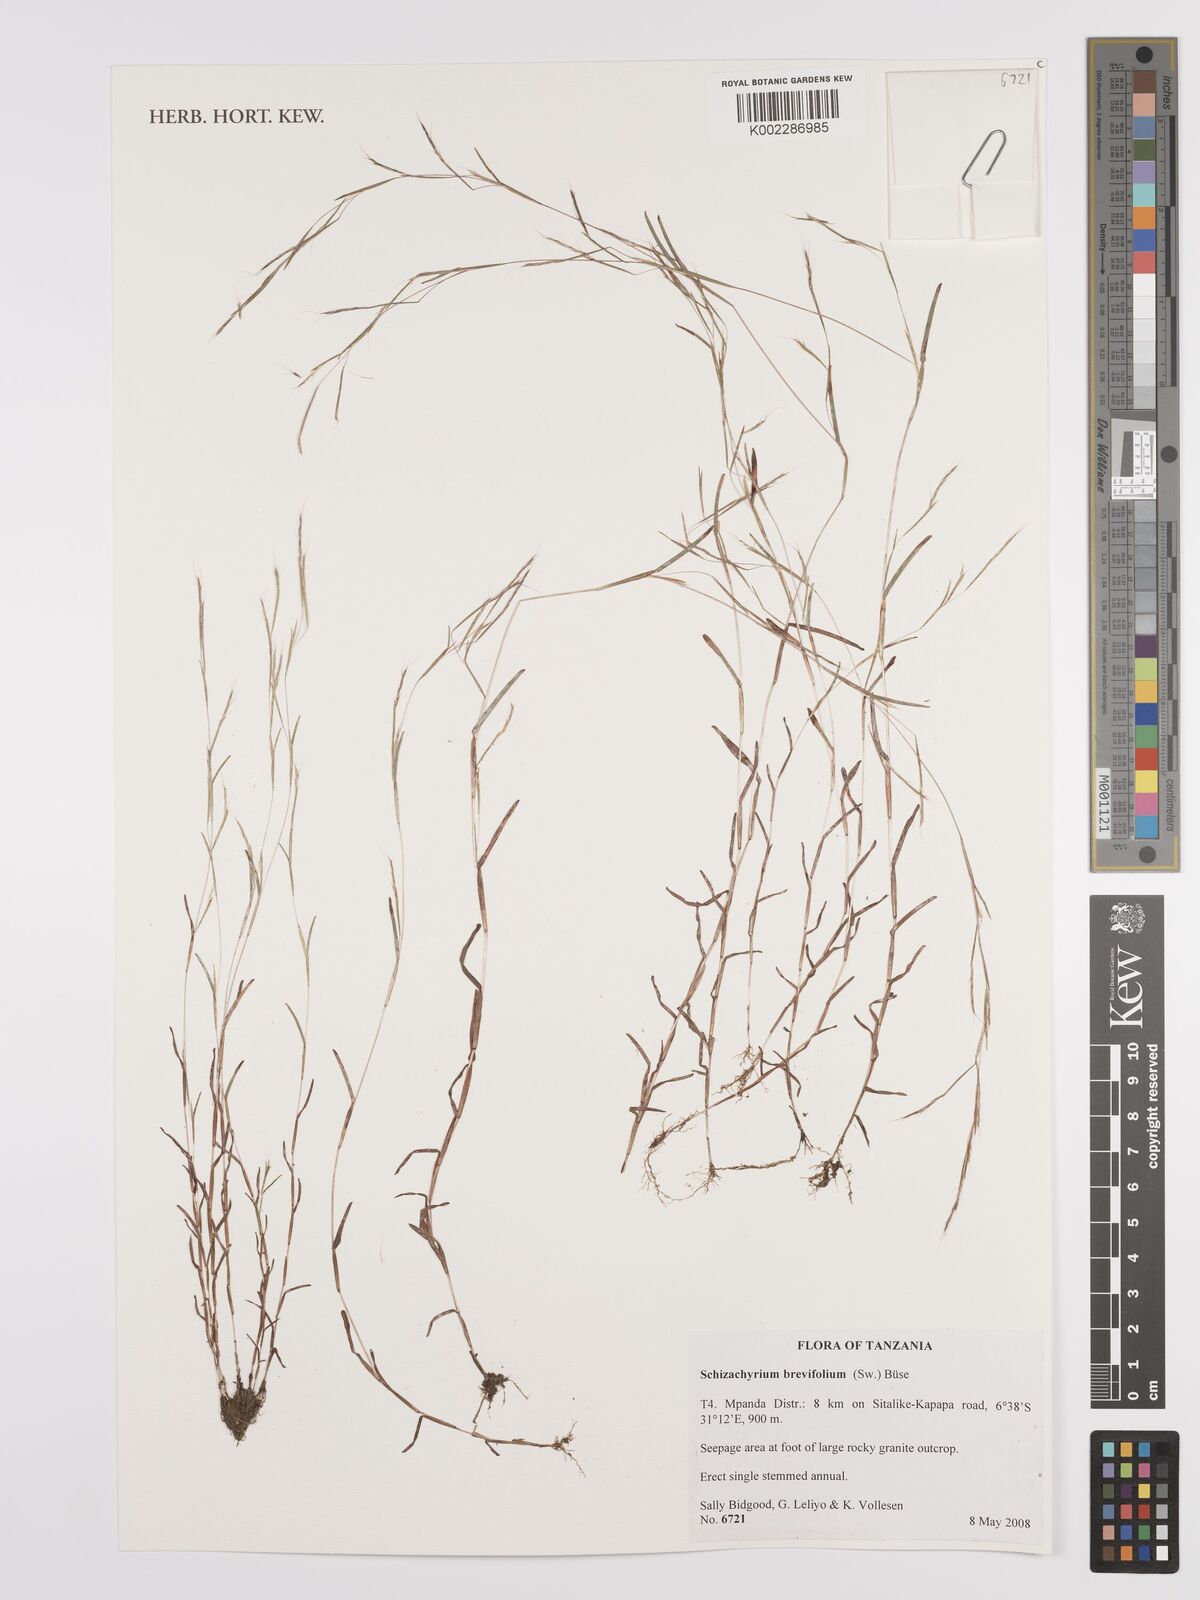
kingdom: Plantae
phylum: Tracheophyta
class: Liliopsida
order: Poales
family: Poaceae
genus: Schizachyrium
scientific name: Schizachyrium brevifolium
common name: Serillo dulce
